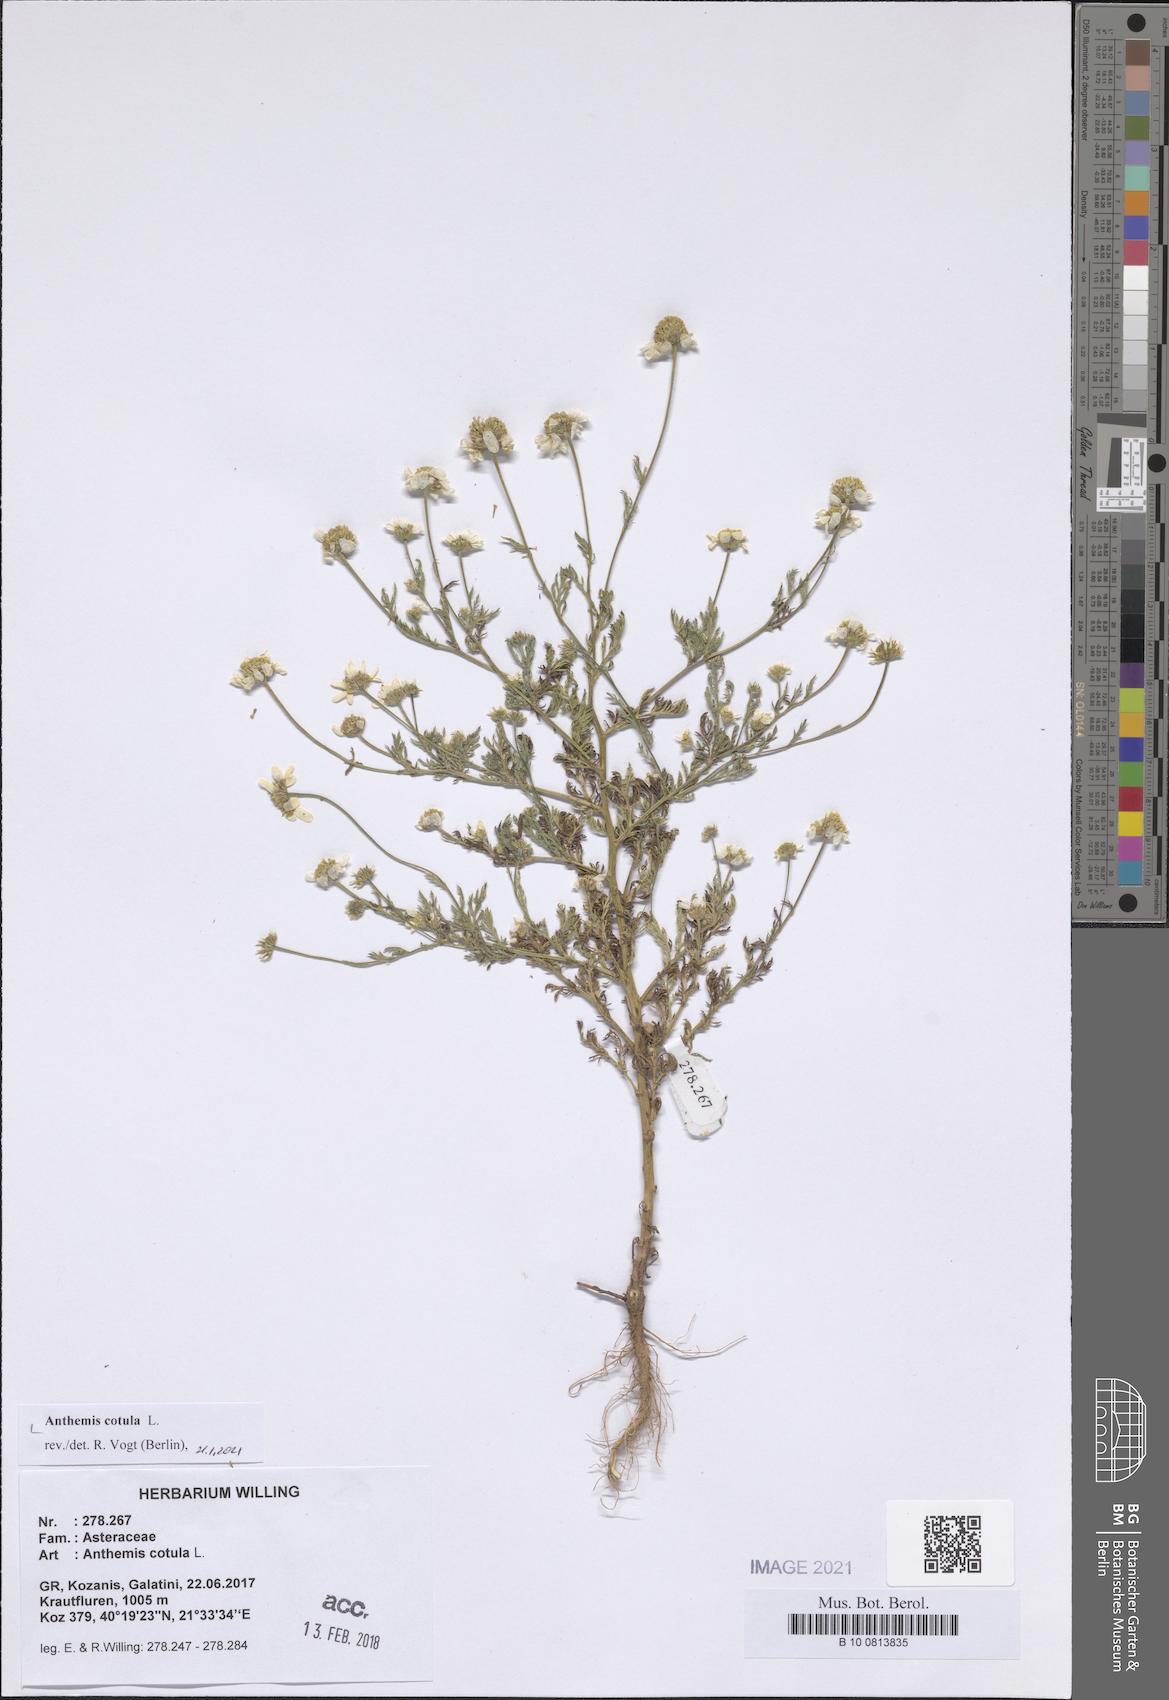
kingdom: Plantae
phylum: Tracheophyta
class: Magnoliopsida
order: Asterales
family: Asteraceae
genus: Anthemis
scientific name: Anthemis cotula
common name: Stinking chamomile
